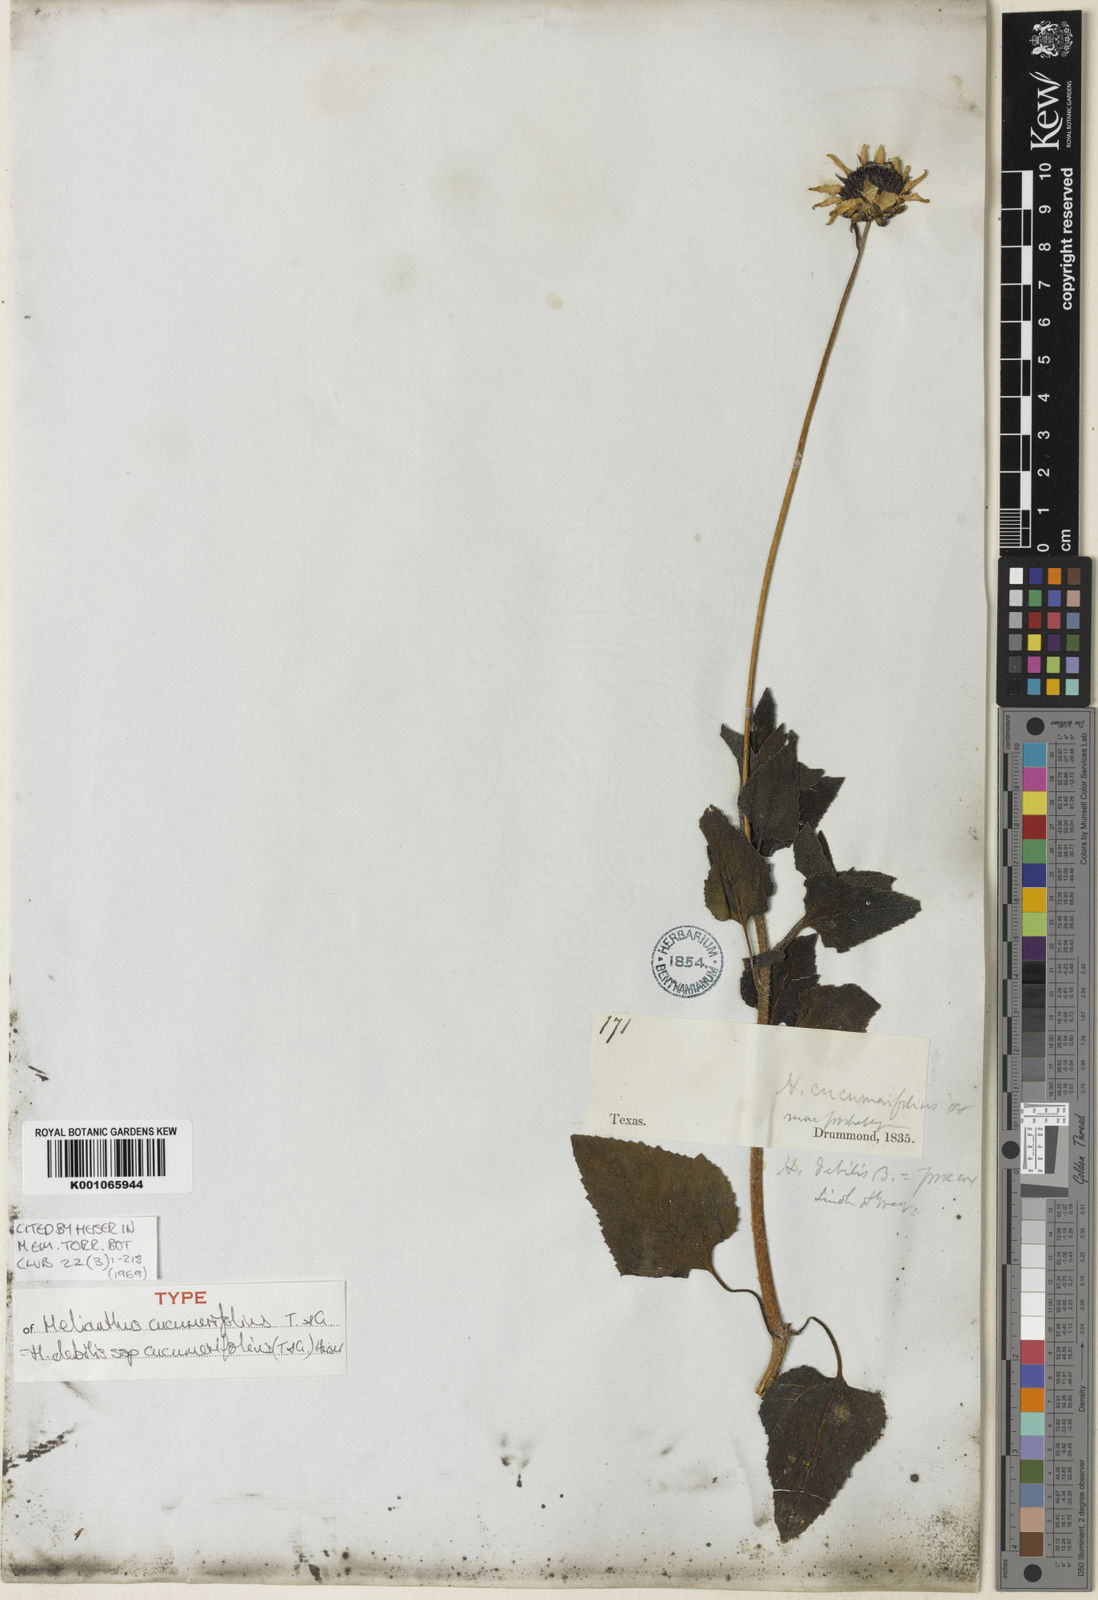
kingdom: Plantae
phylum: Tracheophyta
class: Magnoliopsida
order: Asterales
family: Asteraceae
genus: Helianthus
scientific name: Helianthus debilis
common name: Weak sunflower
